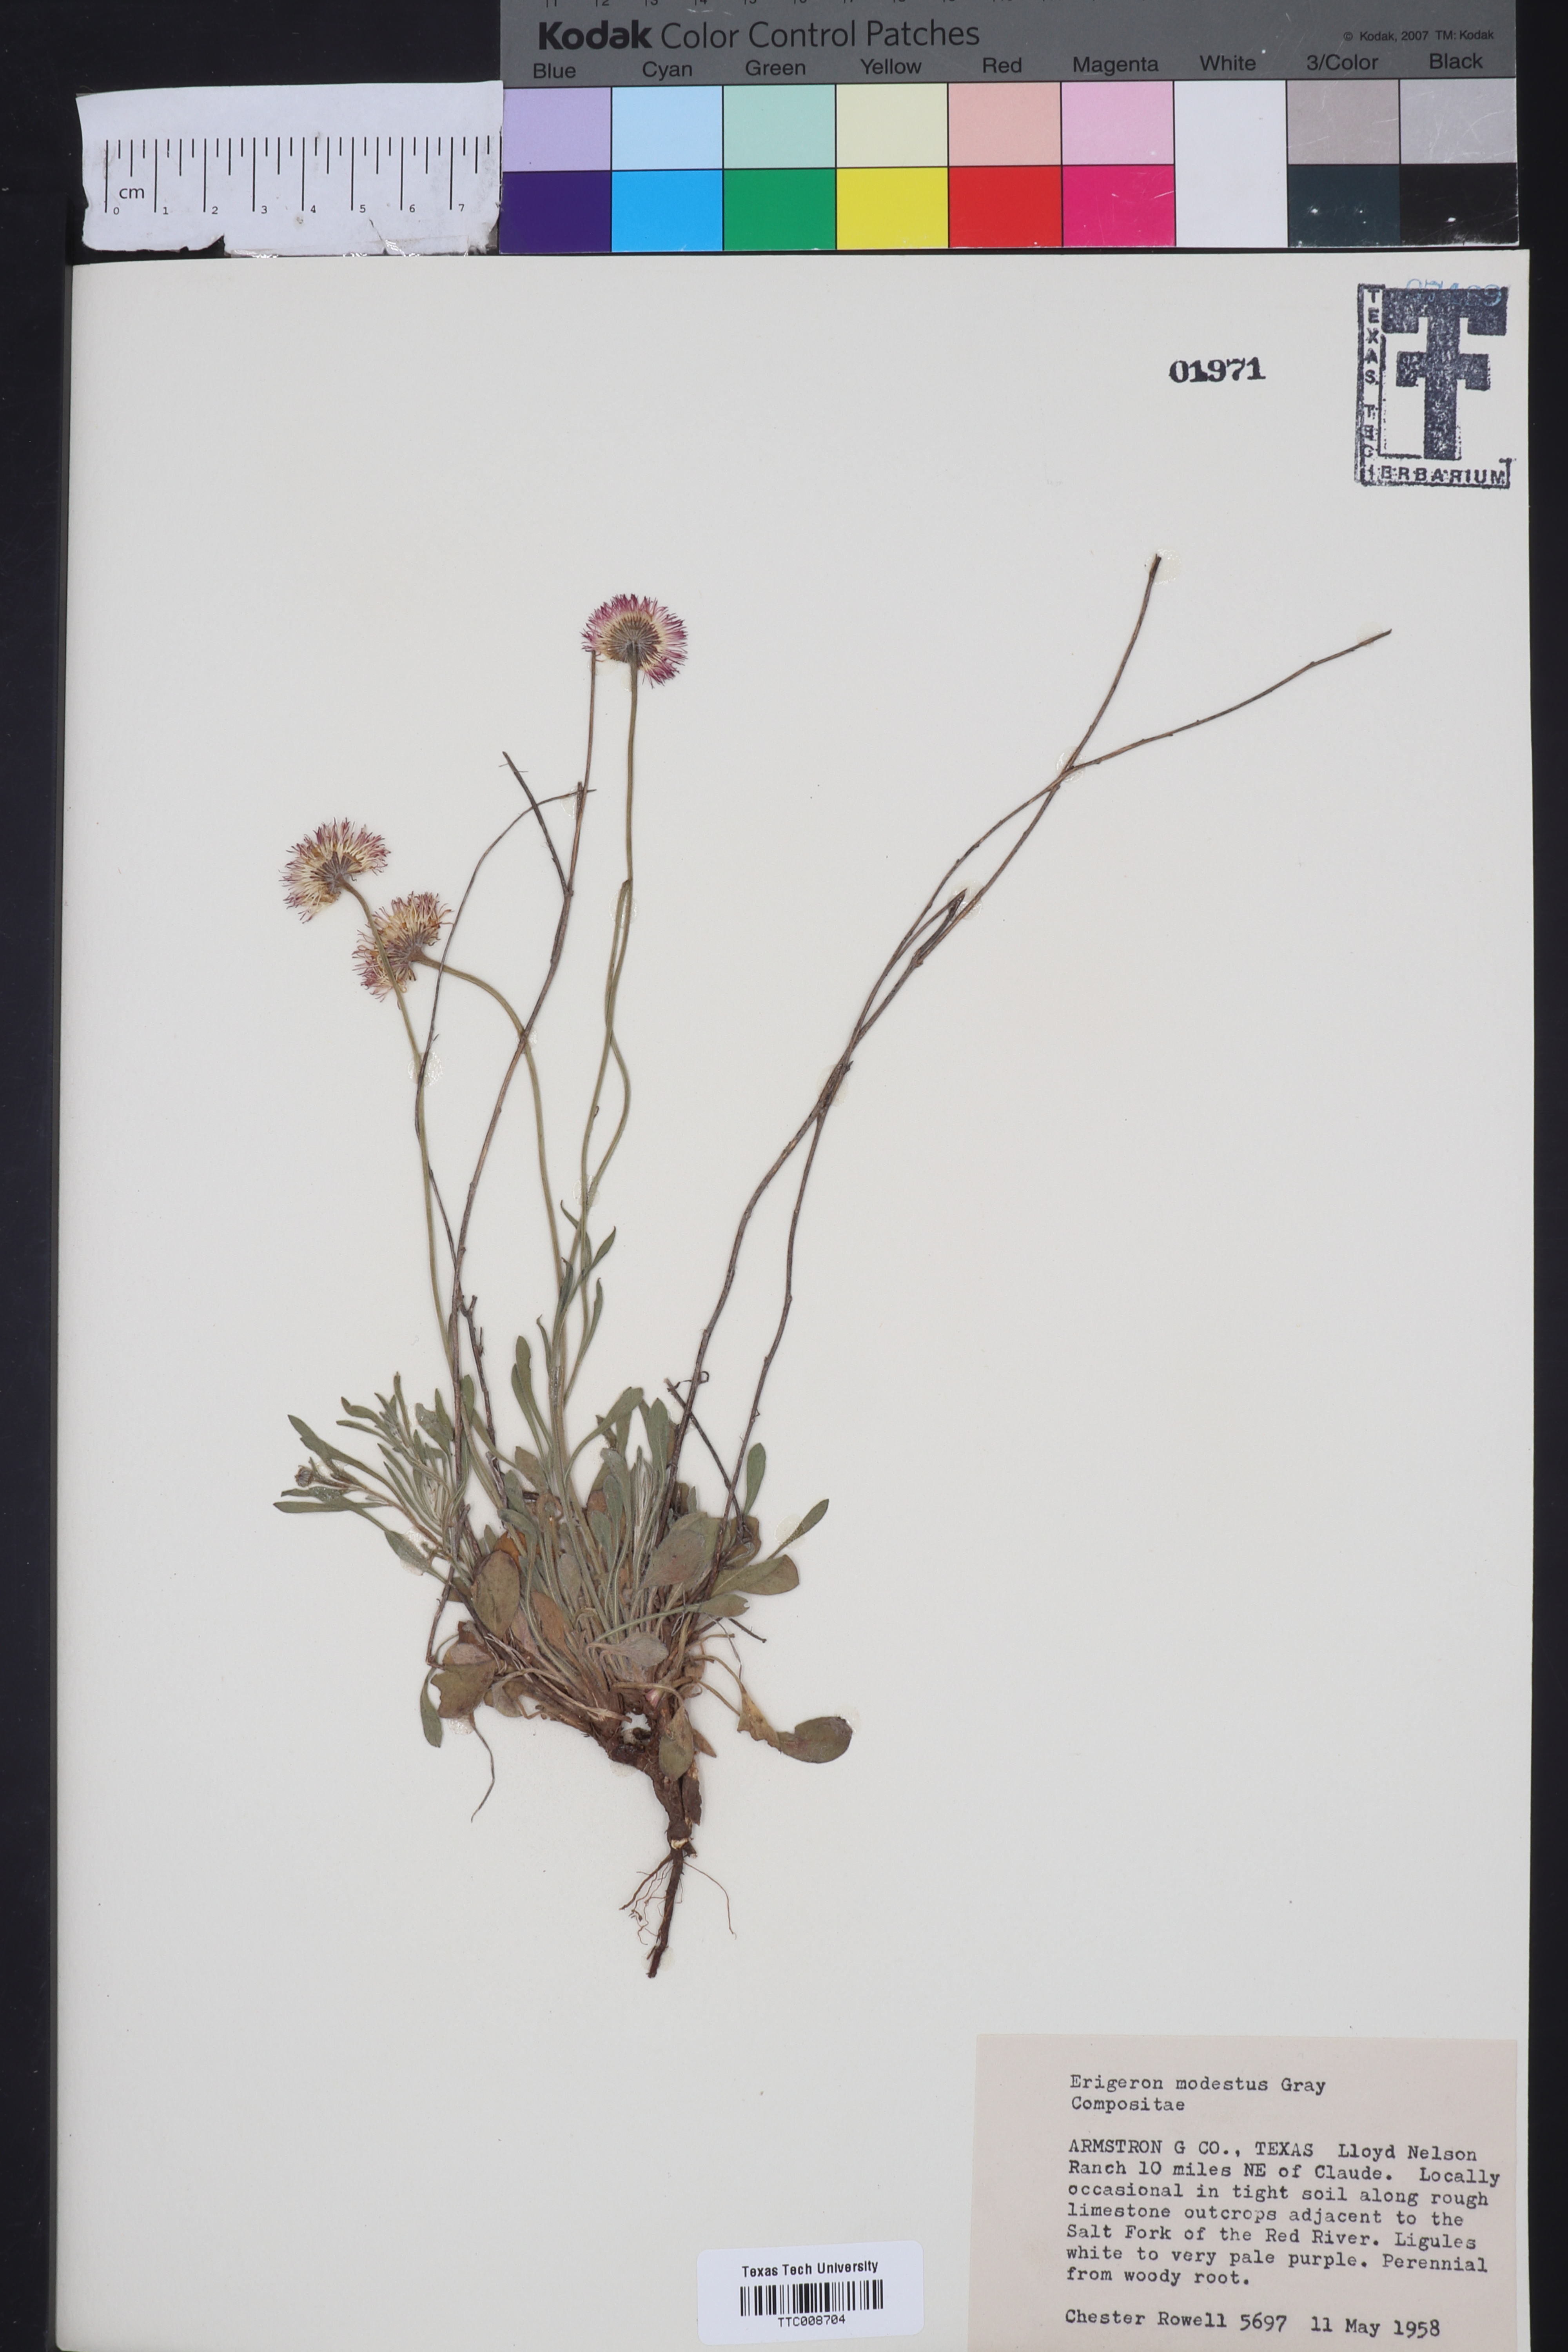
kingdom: Plantae
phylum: Tracheophyta
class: Magnoliopsida
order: Asterales
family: Asteraceae
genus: Erigeron
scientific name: Erigeron modestus
